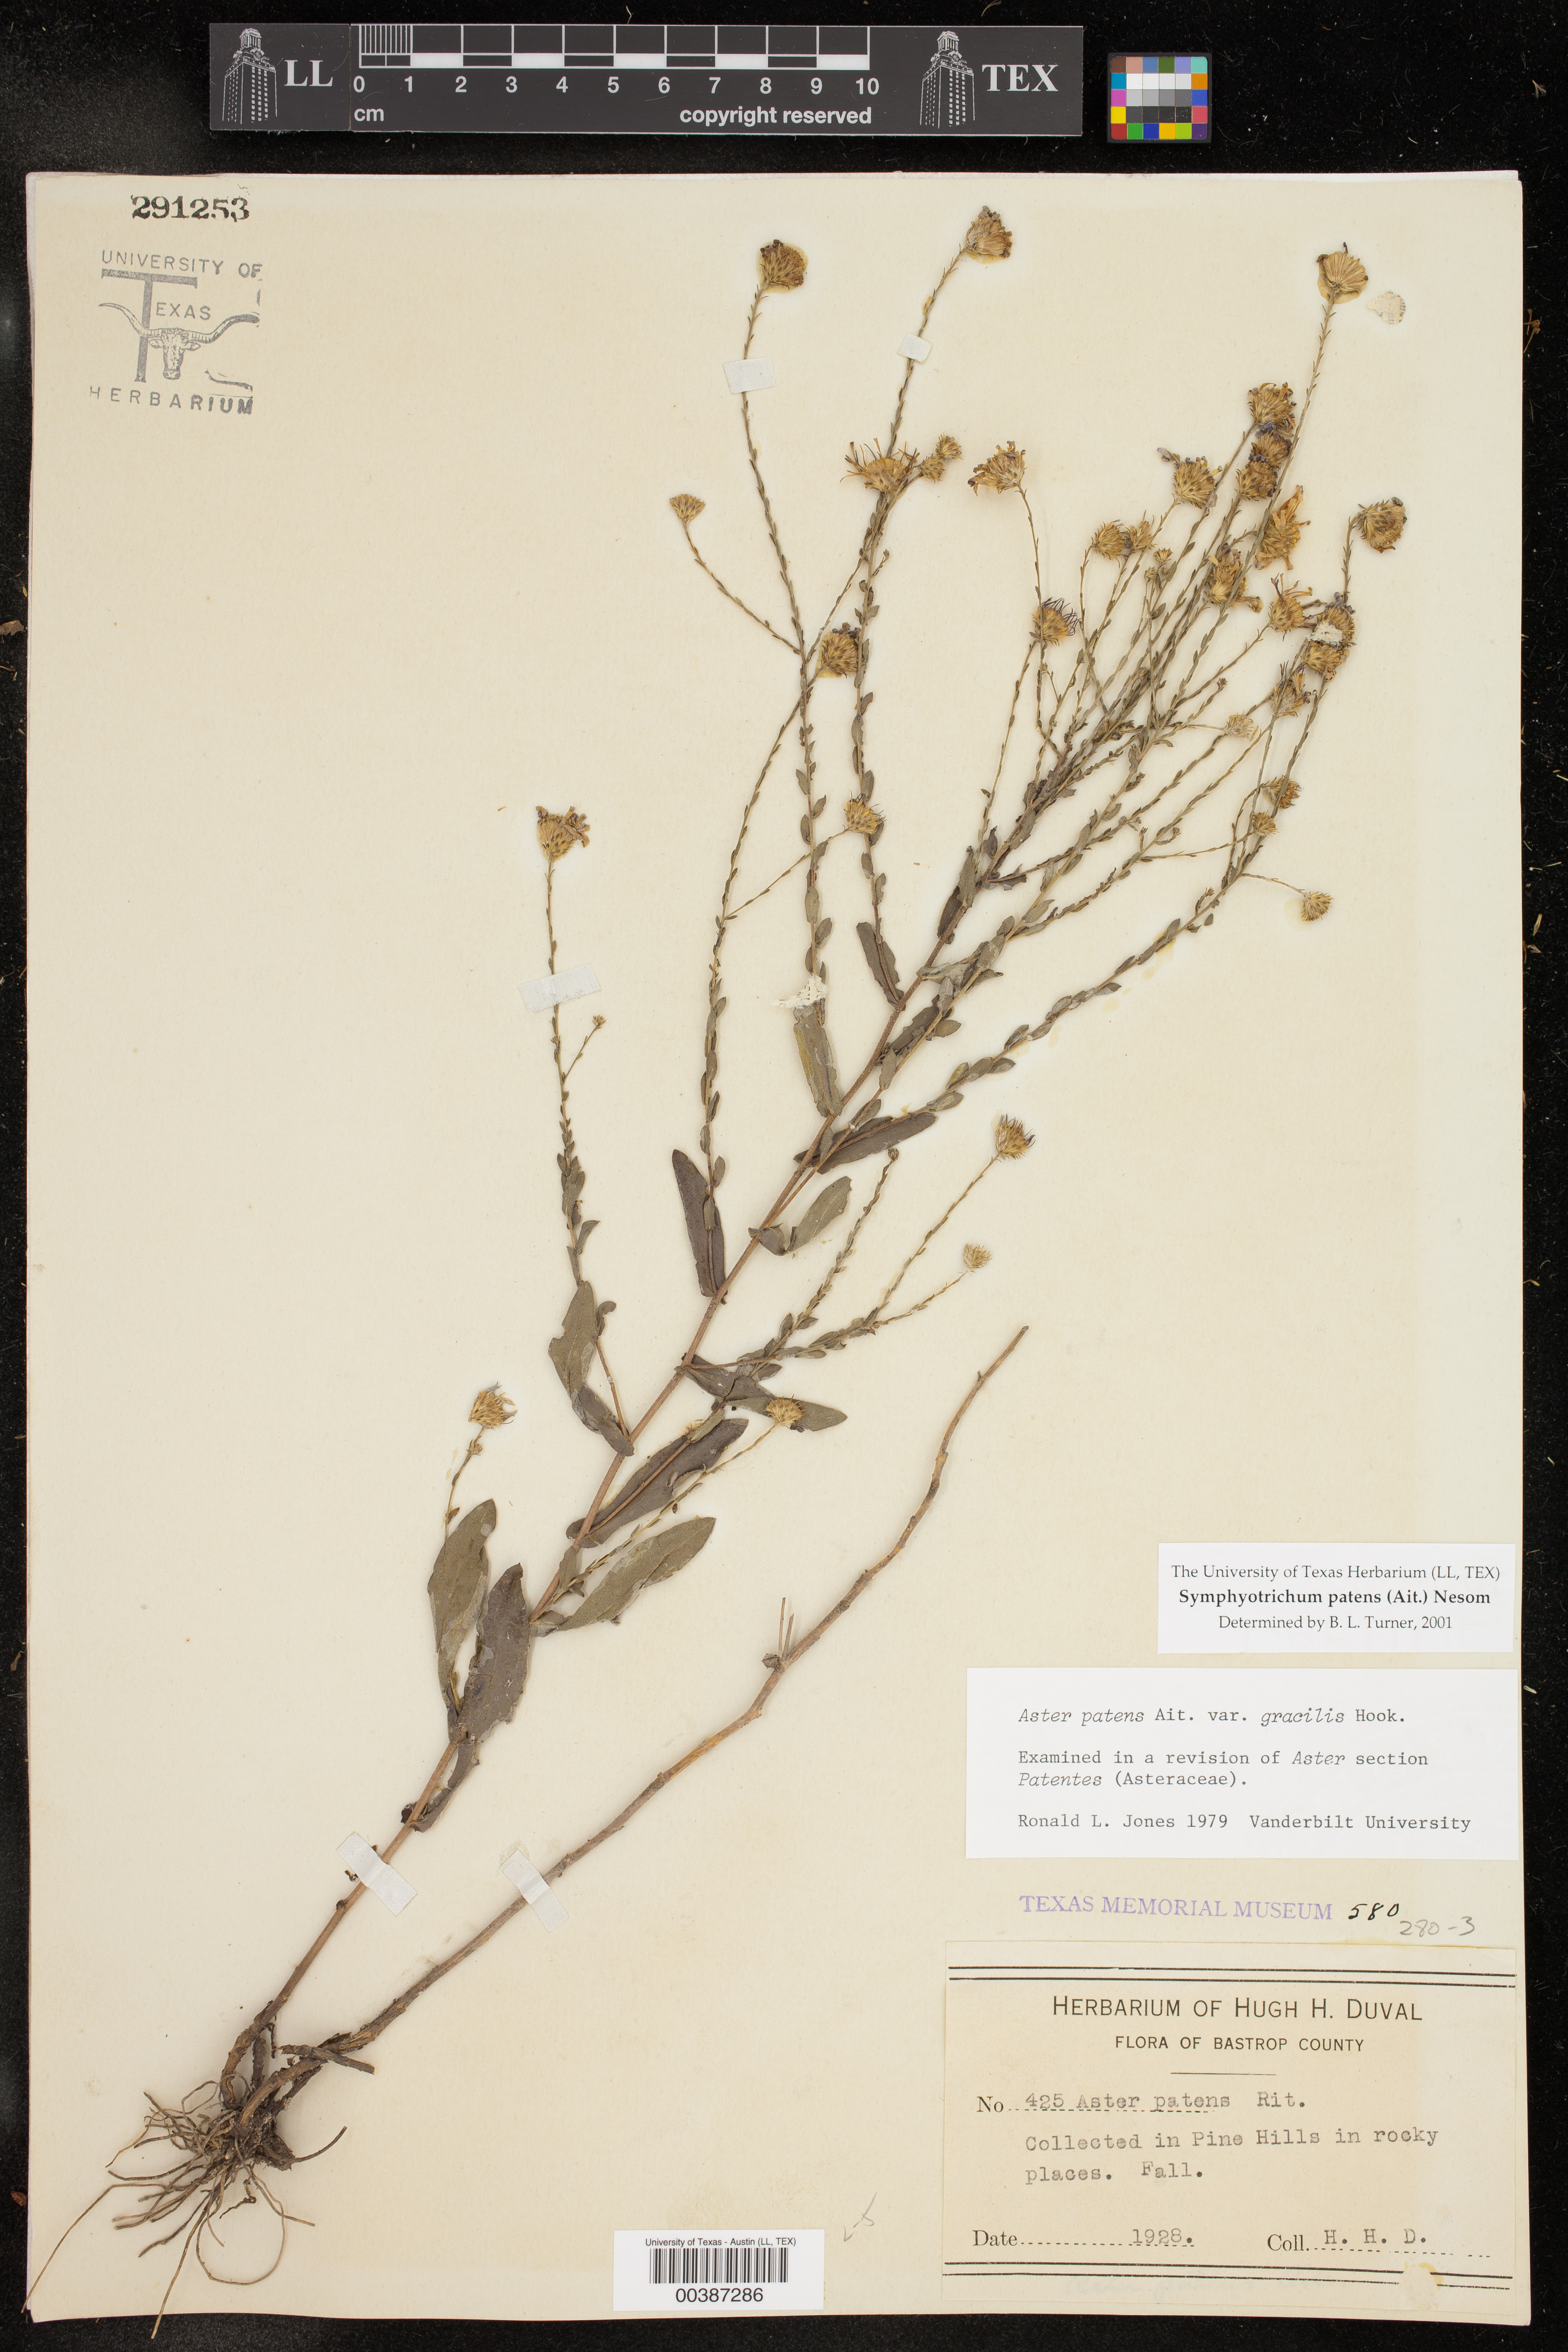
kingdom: Plantae
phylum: Tracheophyta
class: Magnoliopsida
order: Asterales
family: Asteraceae
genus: Symphyotrichum
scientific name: Symphyotrichum patens
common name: Late purple aster
